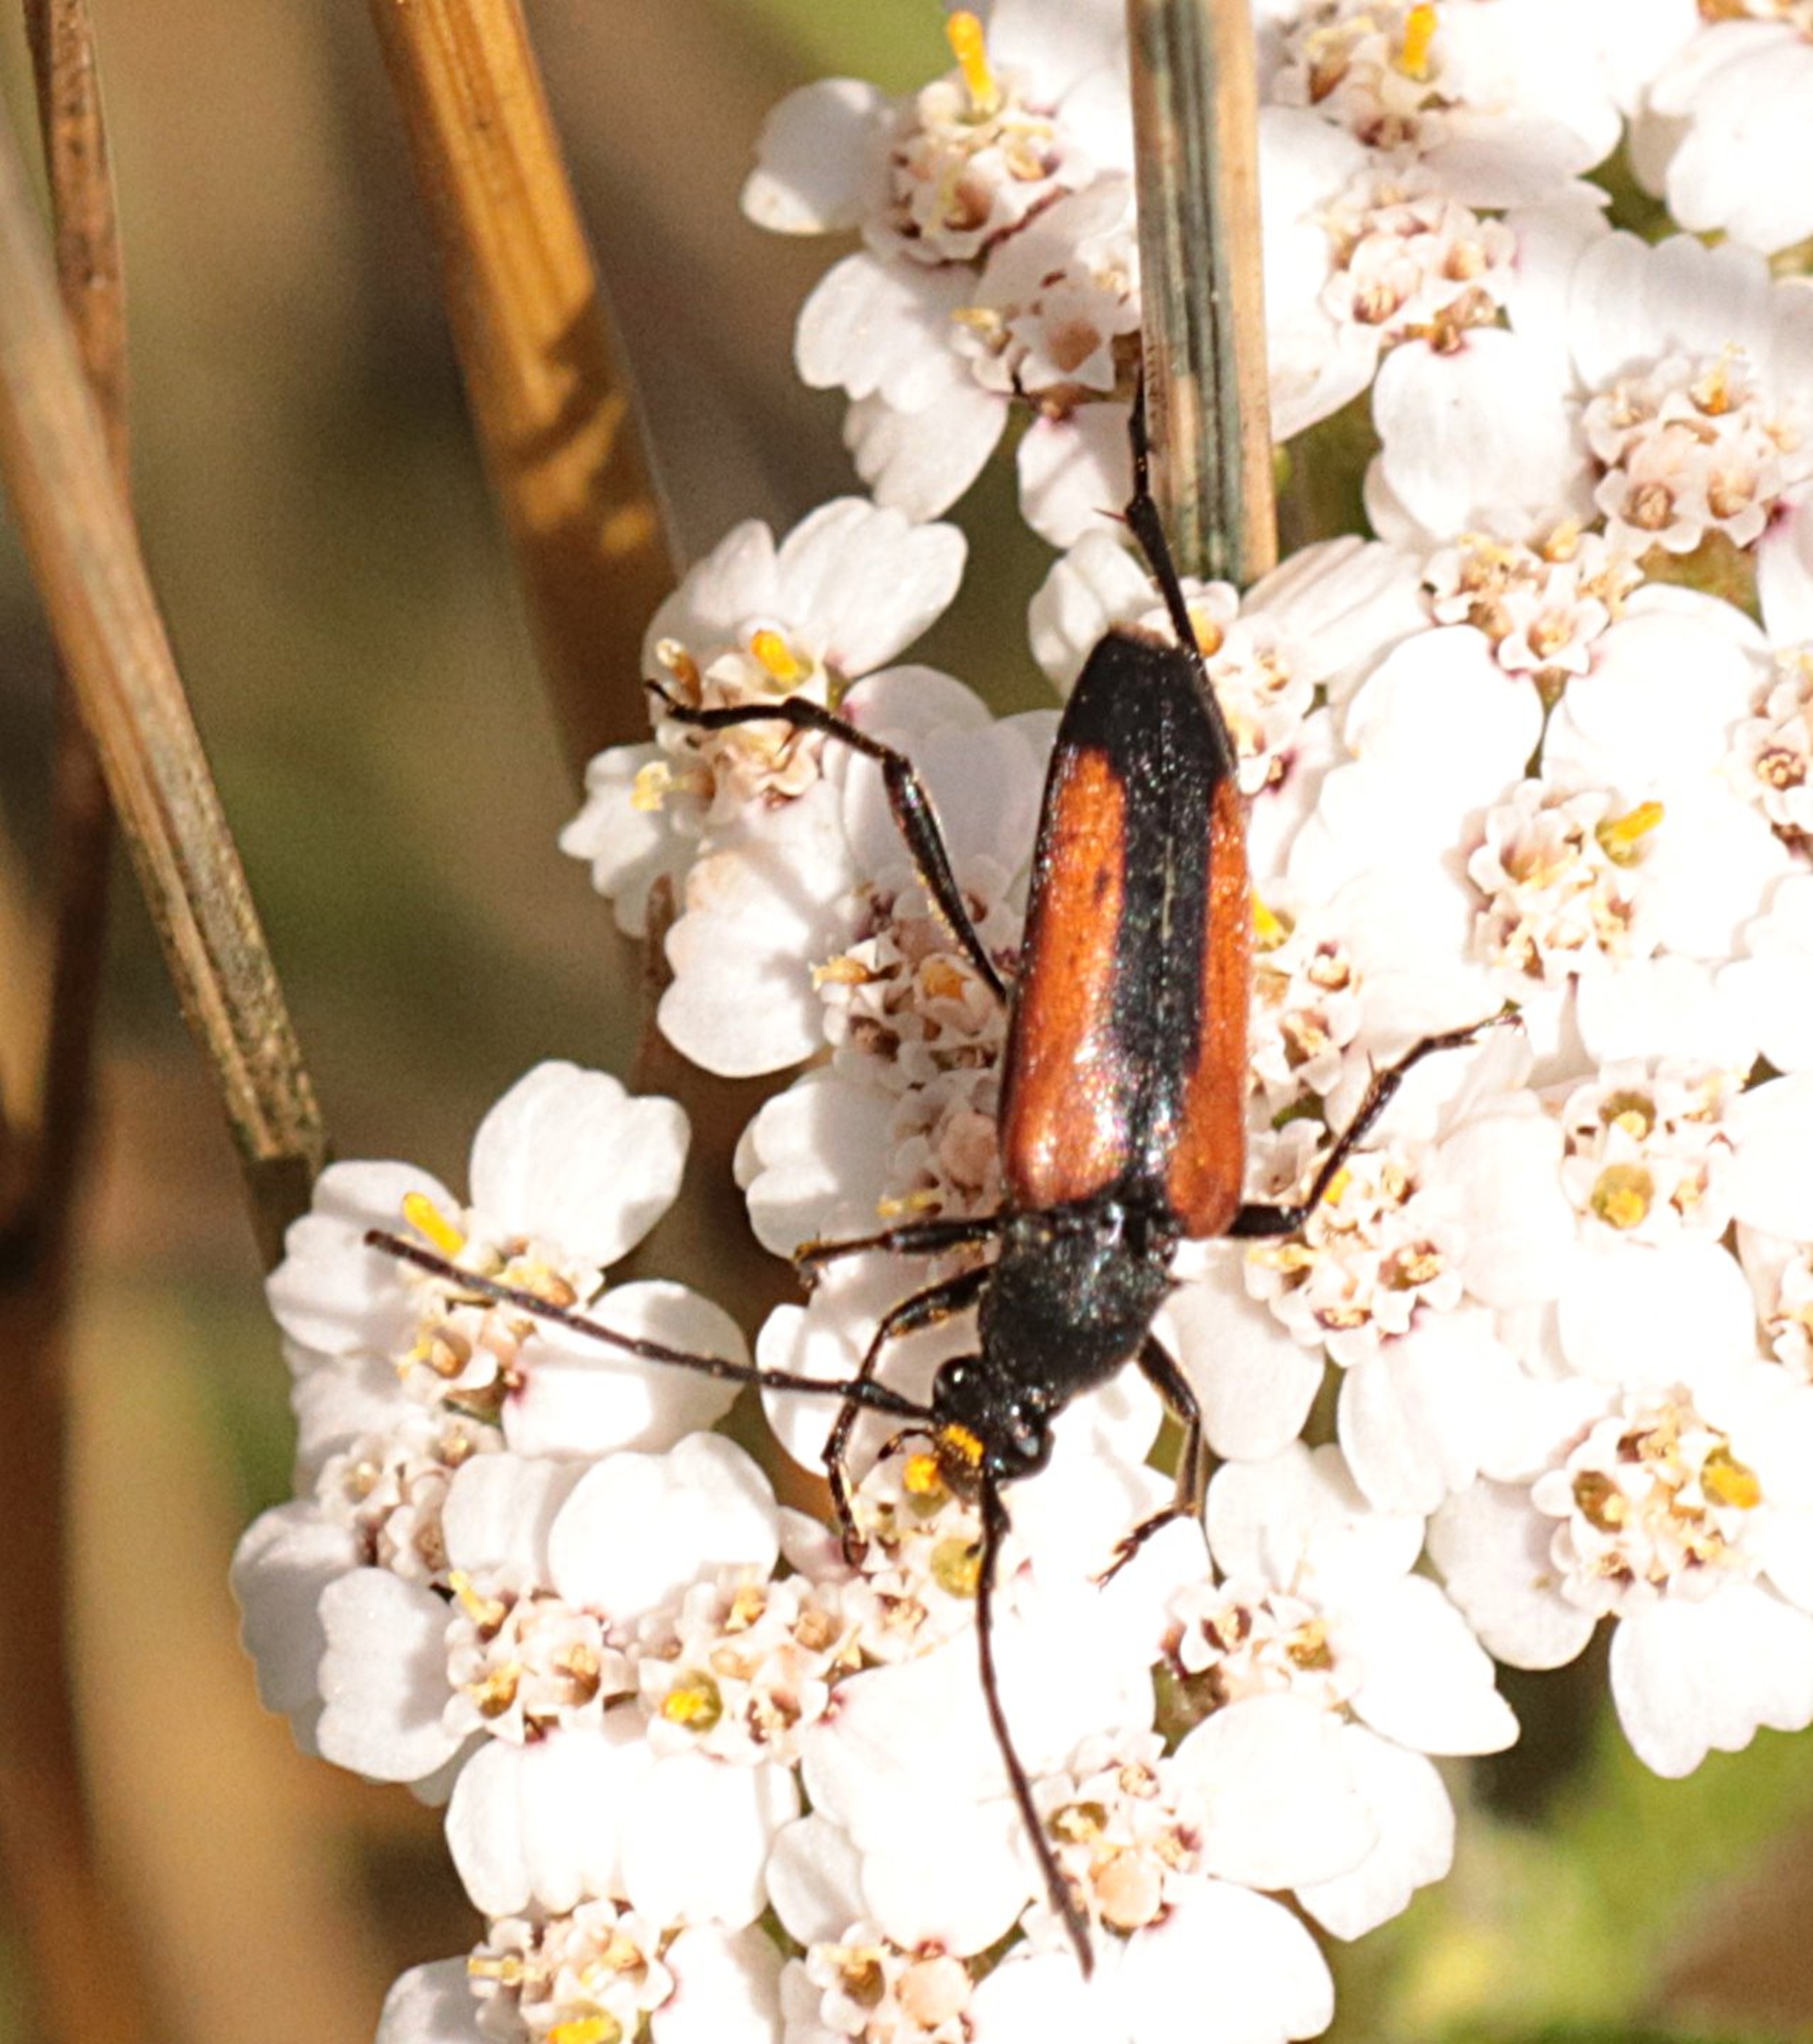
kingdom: Animalia
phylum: Arthropoda
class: Insecta
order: Coleoptera
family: Cerambycidae
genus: Stenurella
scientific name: Stenurella melanura
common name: Sortsømmet blomsterbuk
